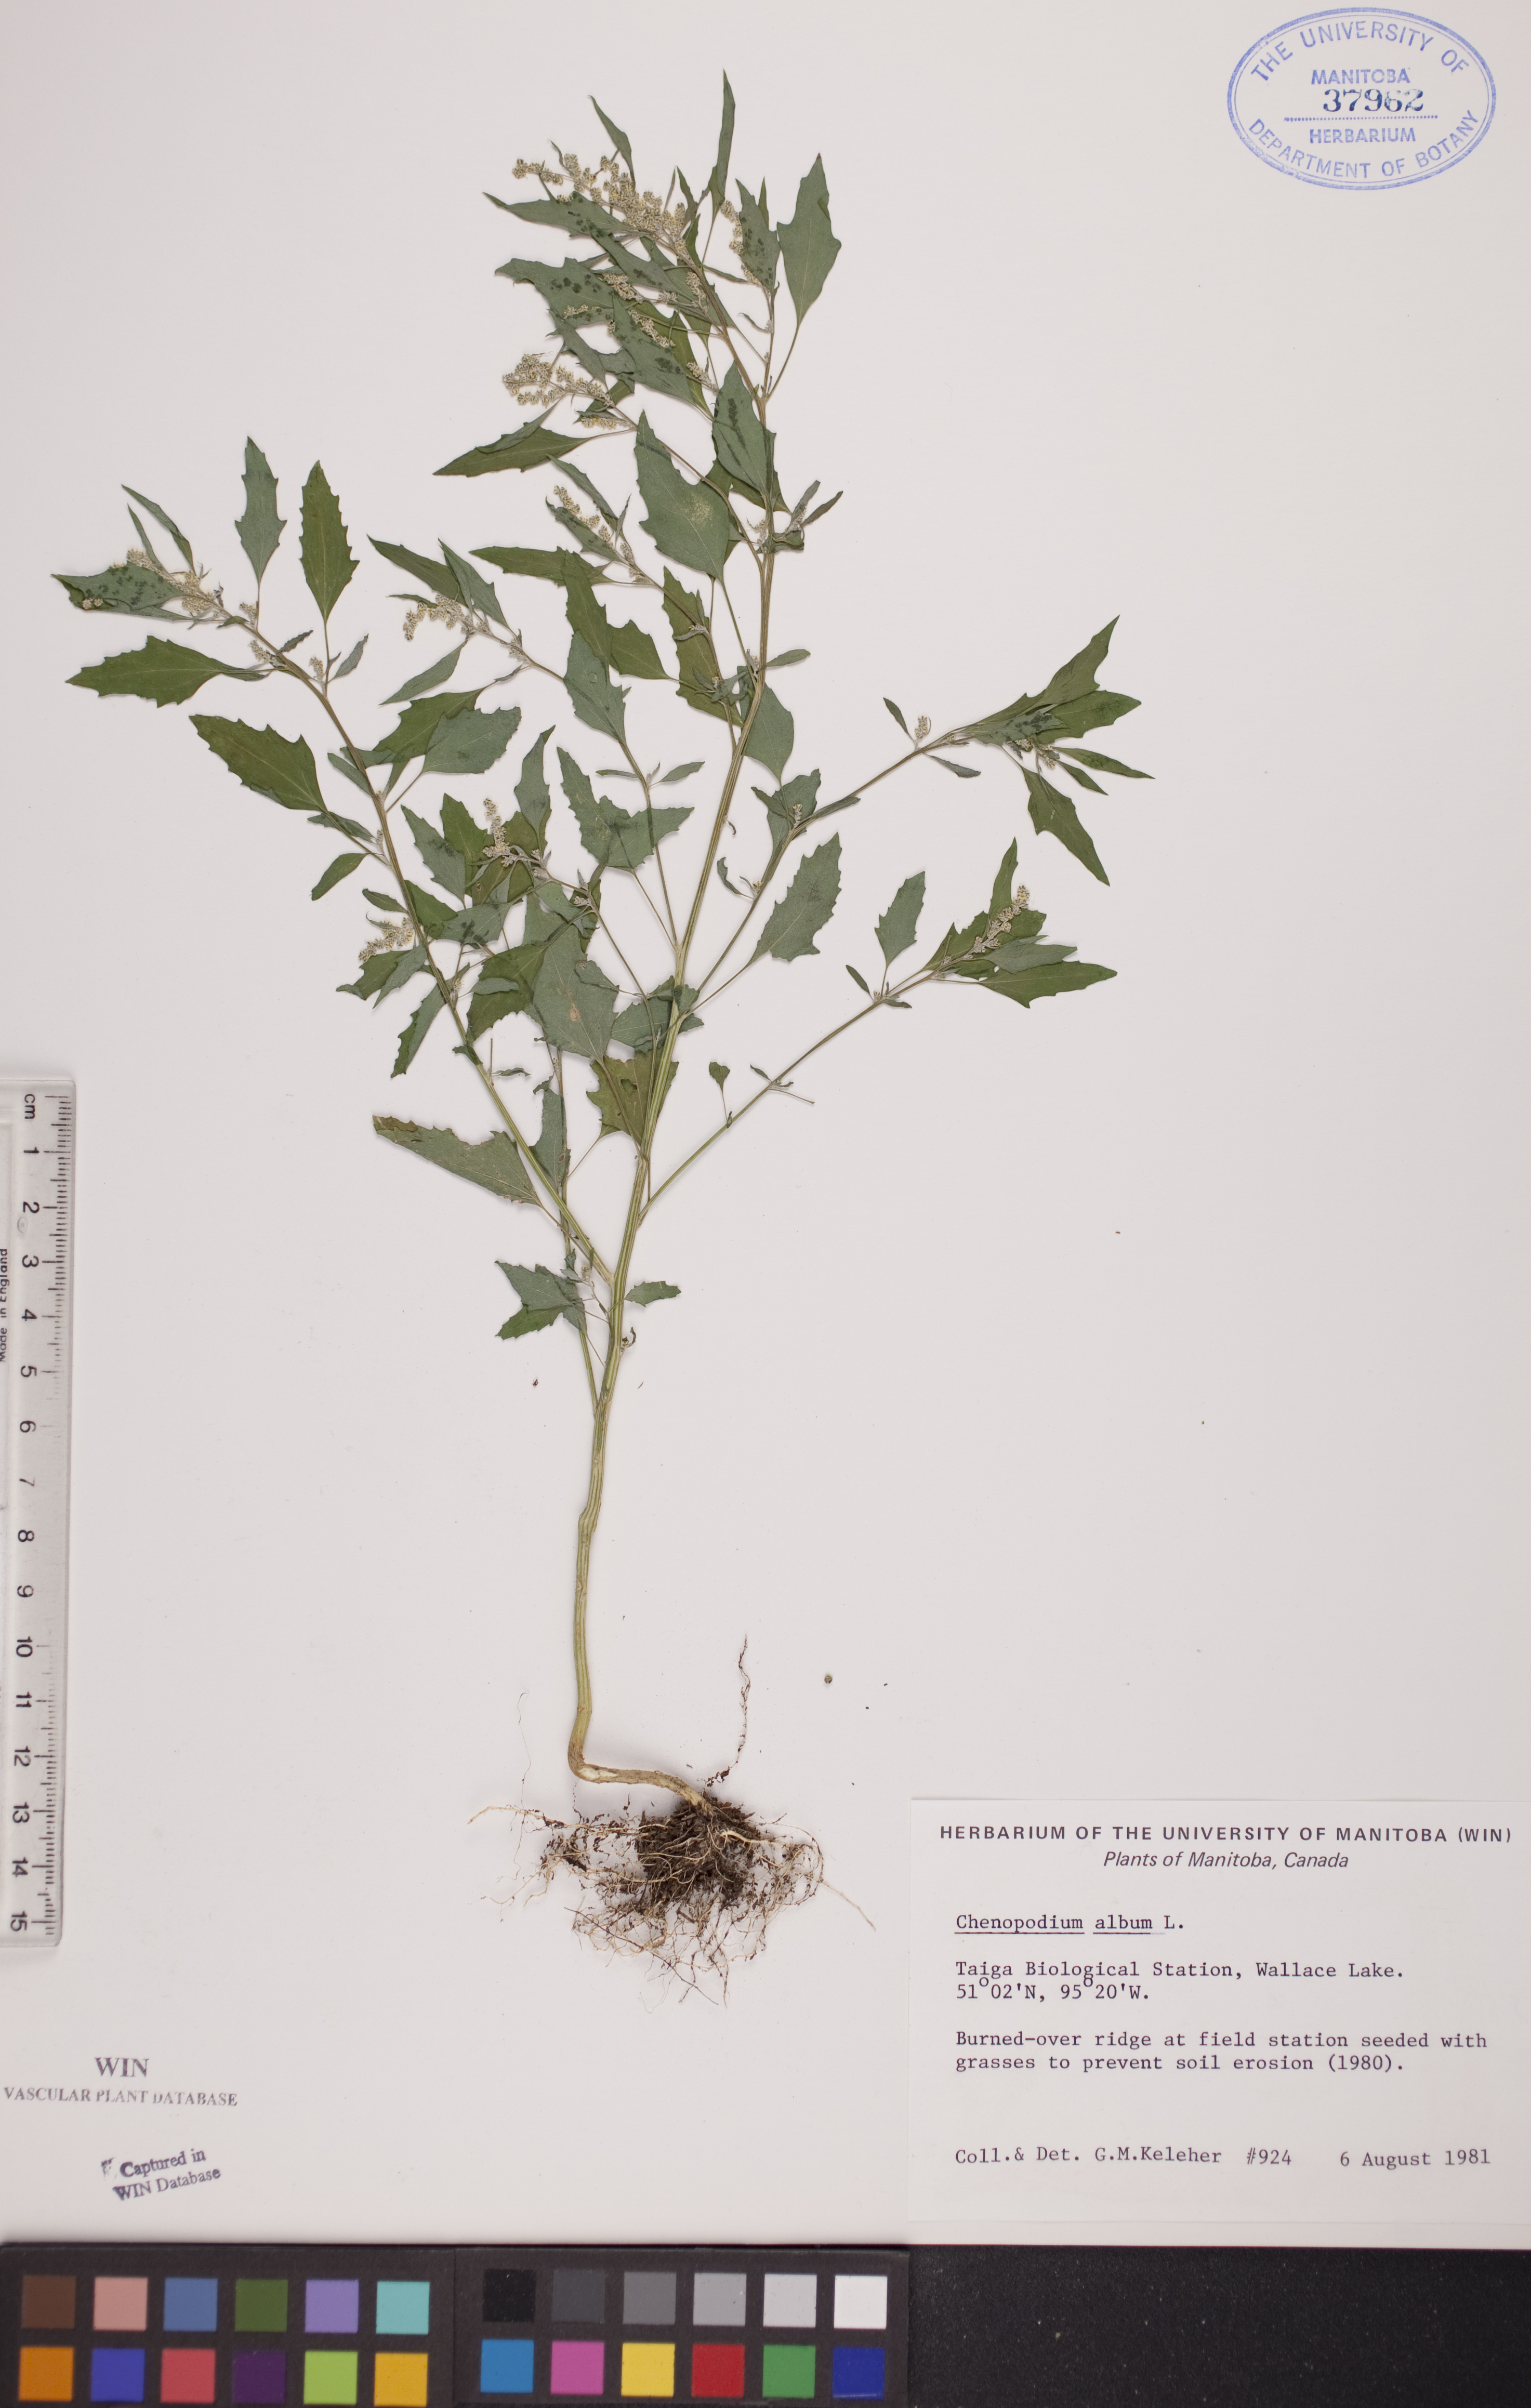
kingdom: Plantae
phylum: Tracheophyta
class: Magnoliopsida
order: Caryophyllales
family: Amaranthaceae
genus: Chenopodium
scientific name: Chenopodium album
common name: Fat-hen
